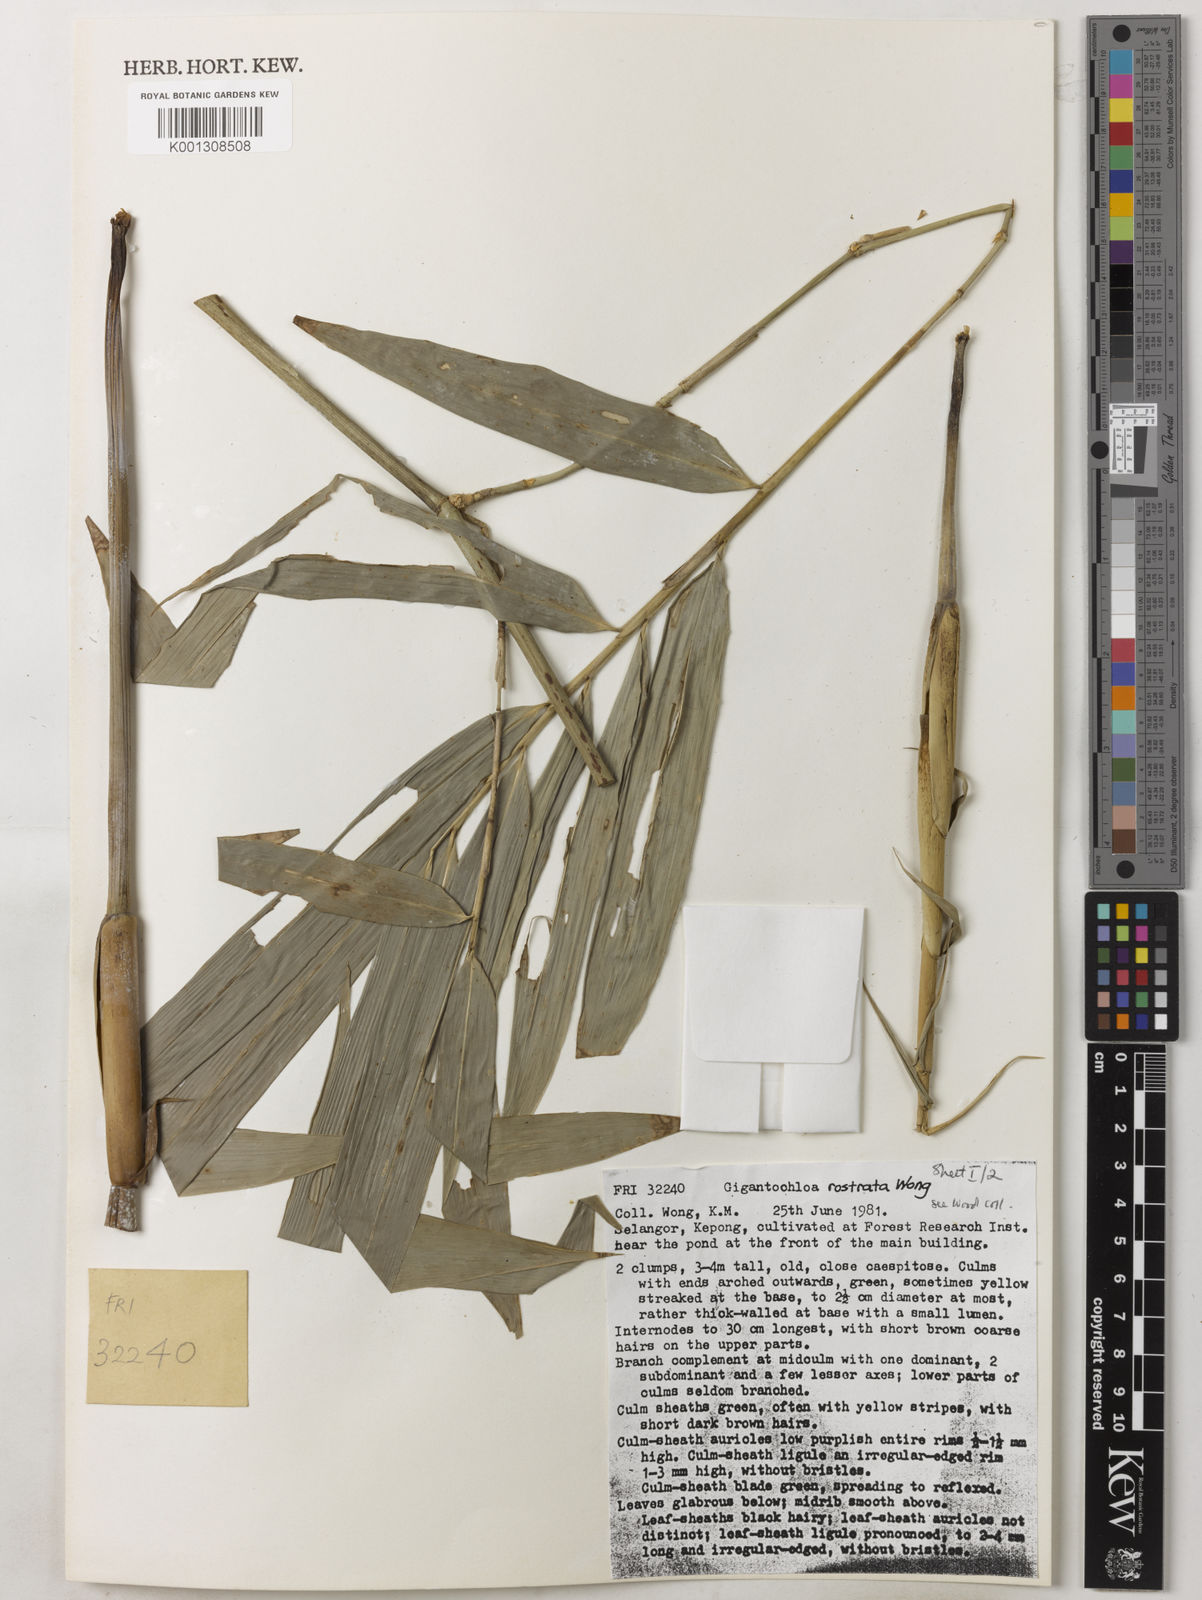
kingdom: Plantae
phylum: Tracheophyta
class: Liliopsida
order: Poales
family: Poaceae
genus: Gigantochloa
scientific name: Gigantochloa rostrata
